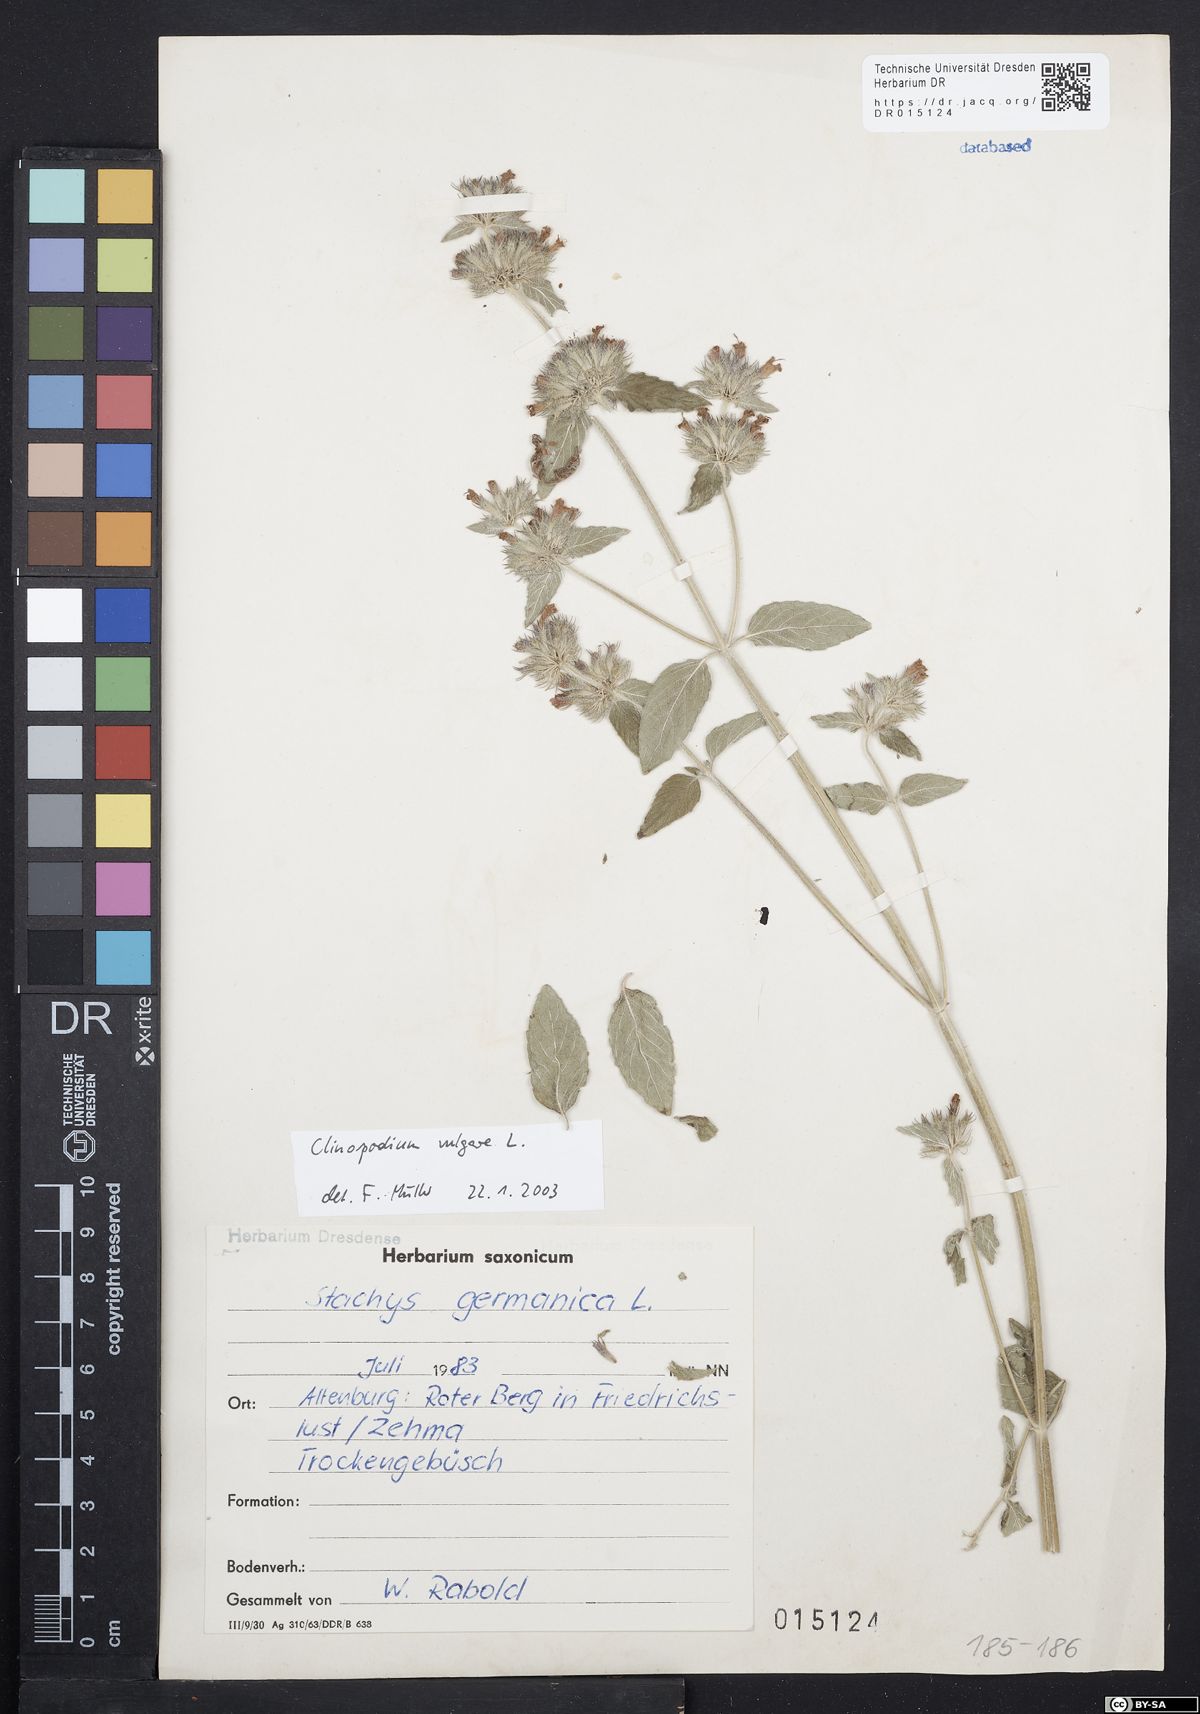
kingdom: Plantae
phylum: Tracheophyta
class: Magnoliopsida
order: Lamiales
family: Lamiaceae
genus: Clinopodium
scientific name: Clinopodium vulgare
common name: Wild basil
